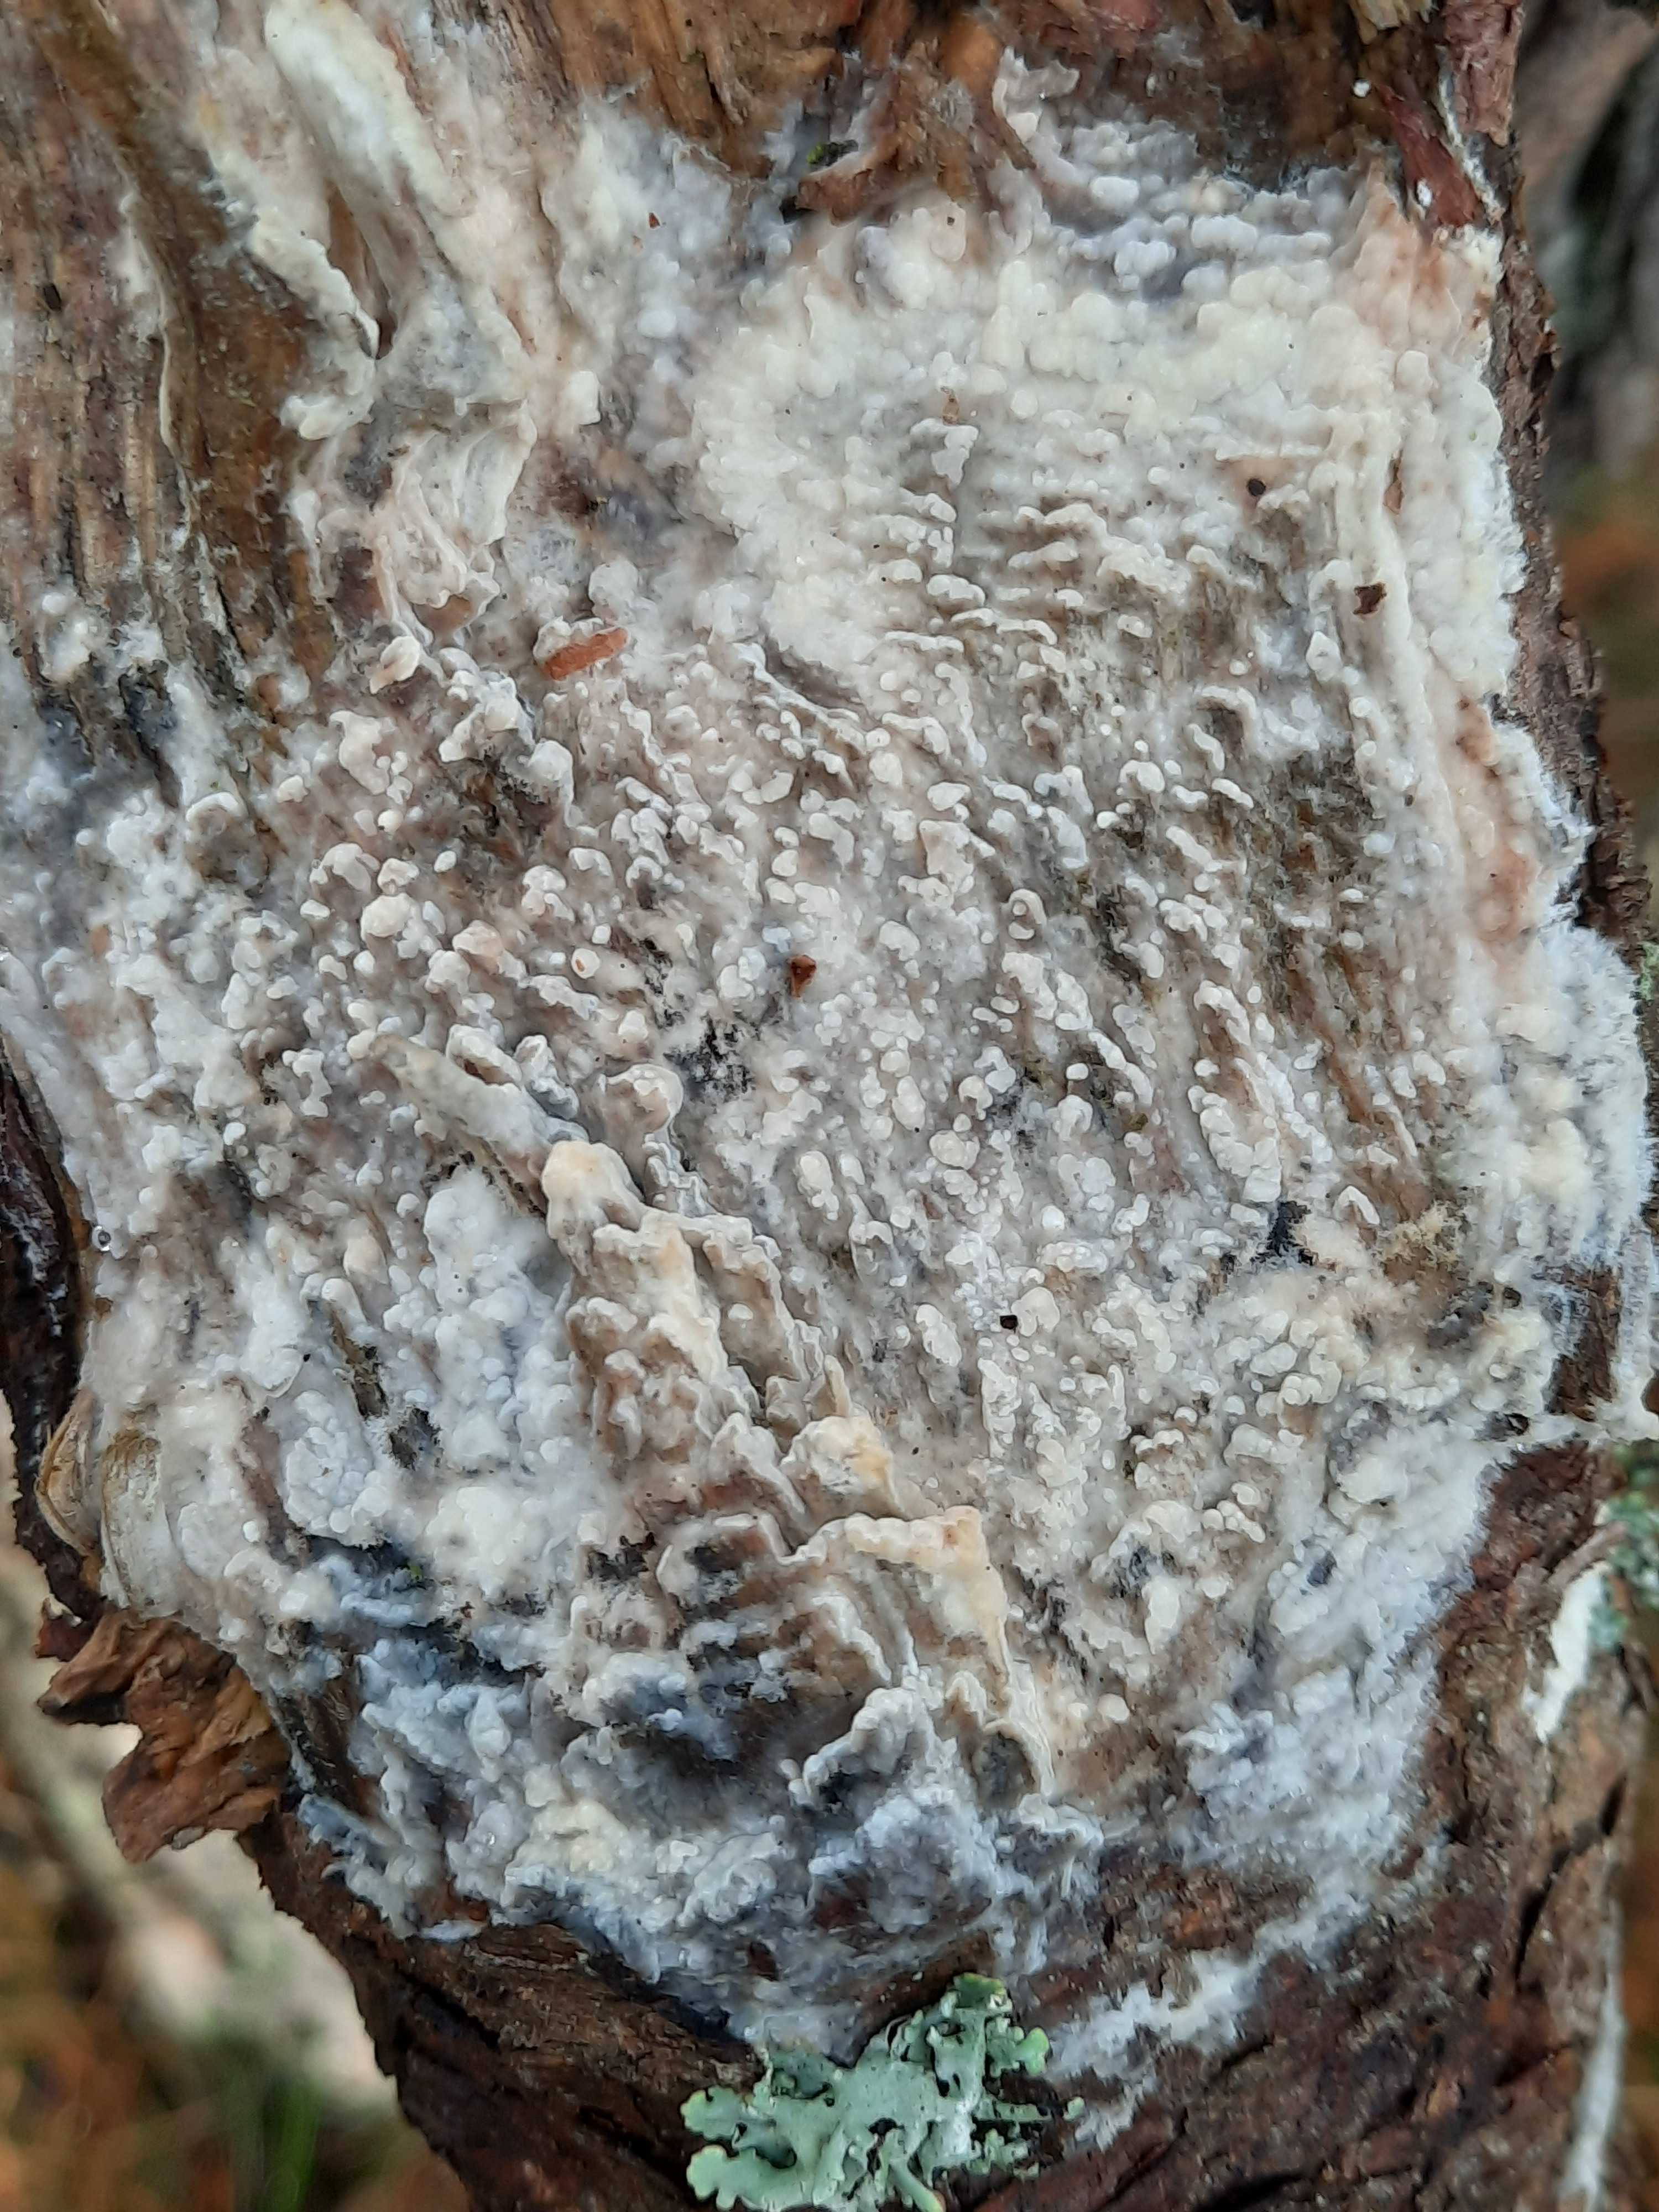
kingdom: Fungi
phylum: Basidiomycota
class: Agaricomycetes
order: Polyporales
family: Phanerochaetaceae
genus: Phlebiopsis
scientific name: Phlebiopsis gigantea
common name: kæmpebarksvamp
